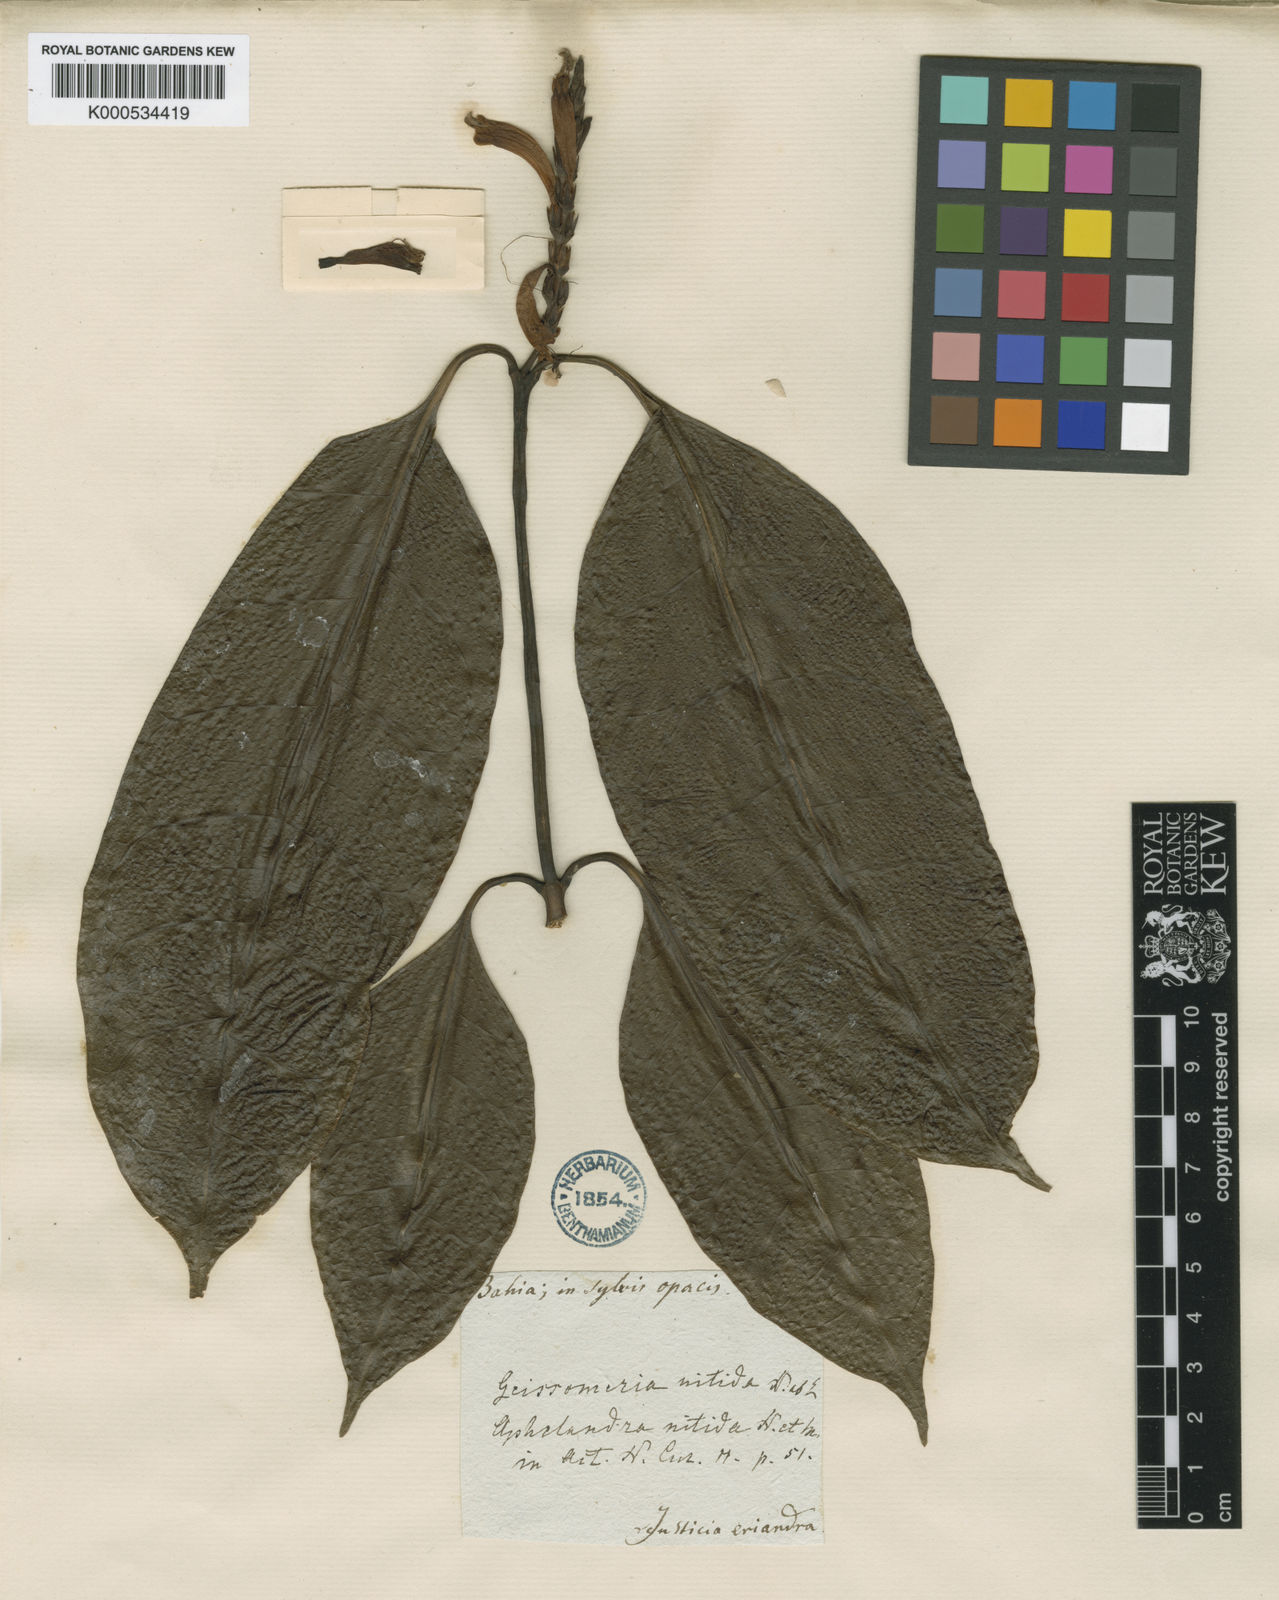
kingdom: Plantae
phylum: Tracheophyta
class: Magnoliopsida
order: Lamiales
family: Acanthaceae
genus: Aphelandra
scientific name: Aphelandra nitida
